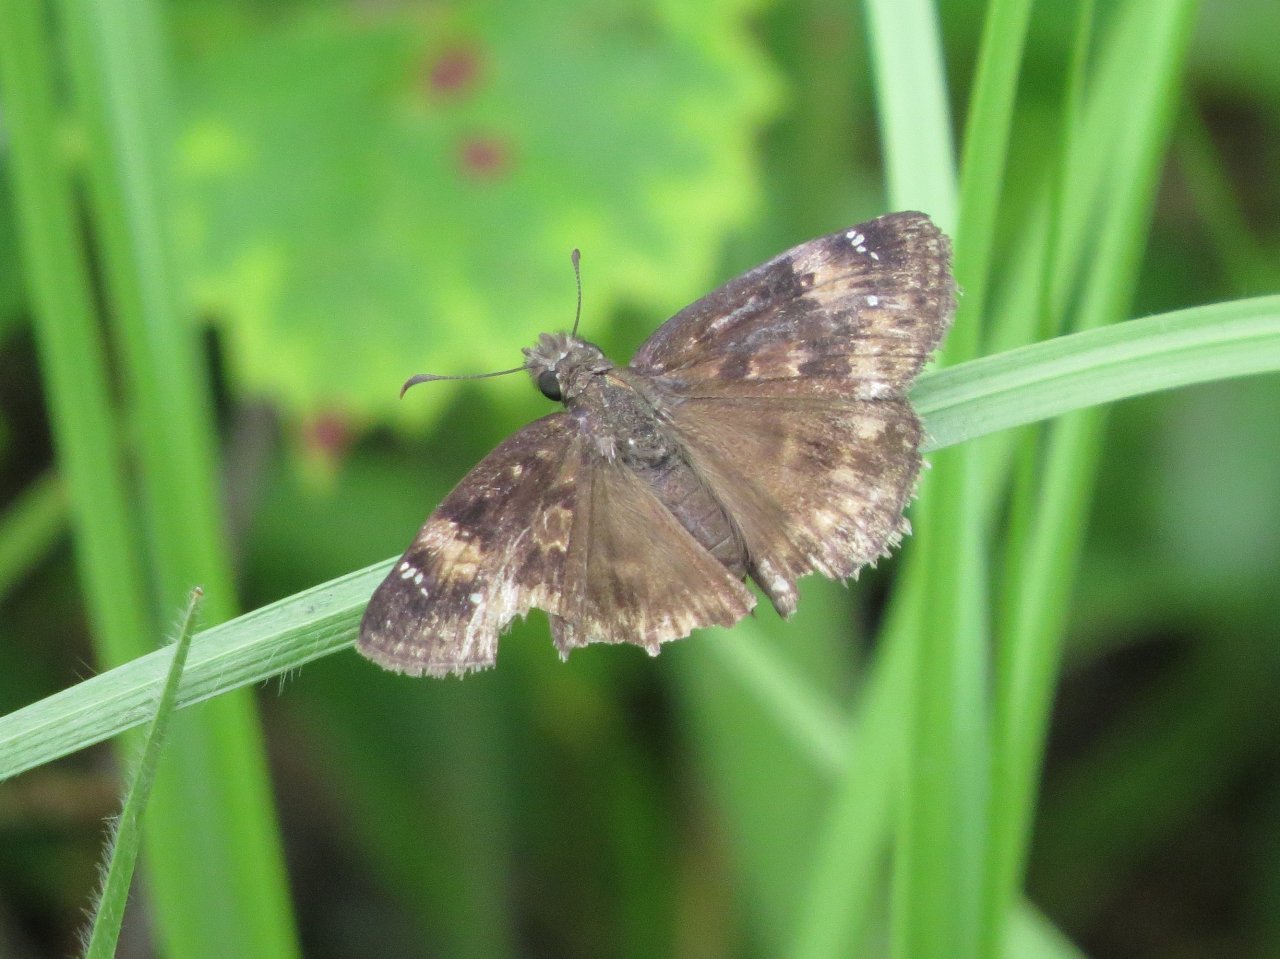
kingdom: Animalia
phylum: Arthropoda
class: Insecta
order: Lepidoptera
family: Hesperiidae
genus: Erynnis
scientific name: Erynnis zarucco
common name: Zarucco Duskywing
